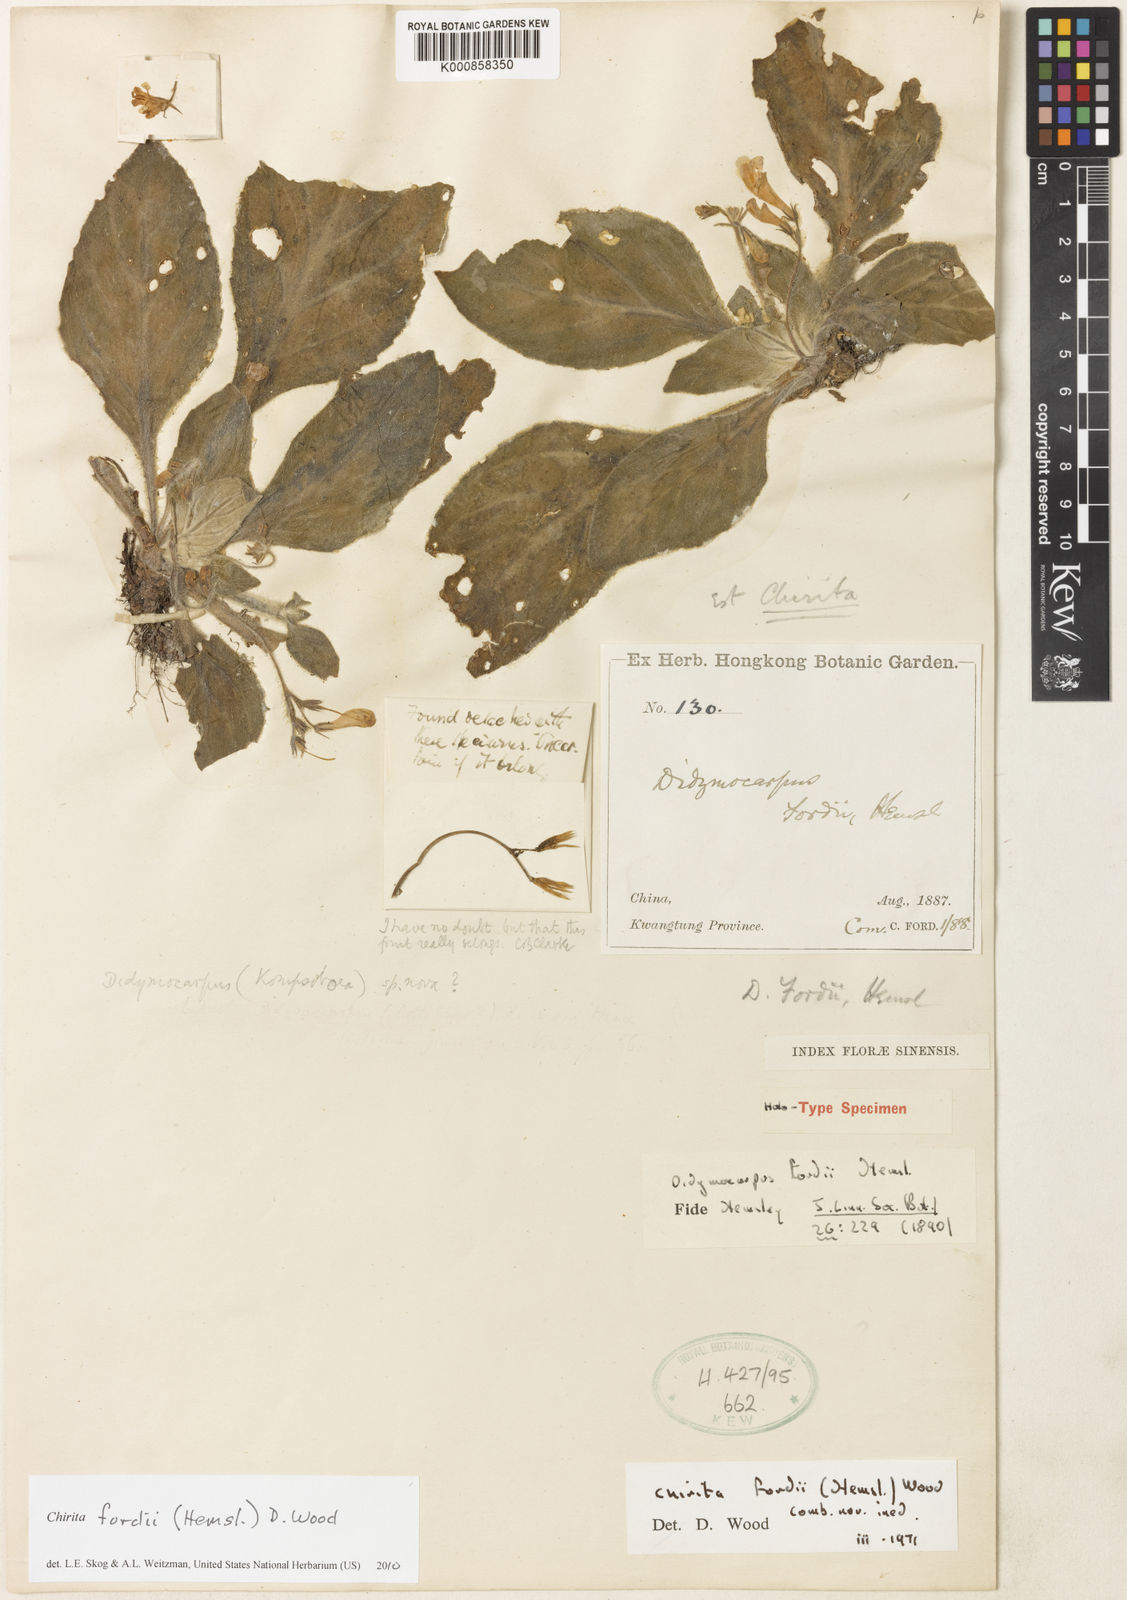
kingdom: Plantae
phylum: Tracheophyta
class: Magnoliopsida
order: Lamiales
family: Gesneriaceae
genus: Primulina
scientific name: Primulina fordii
